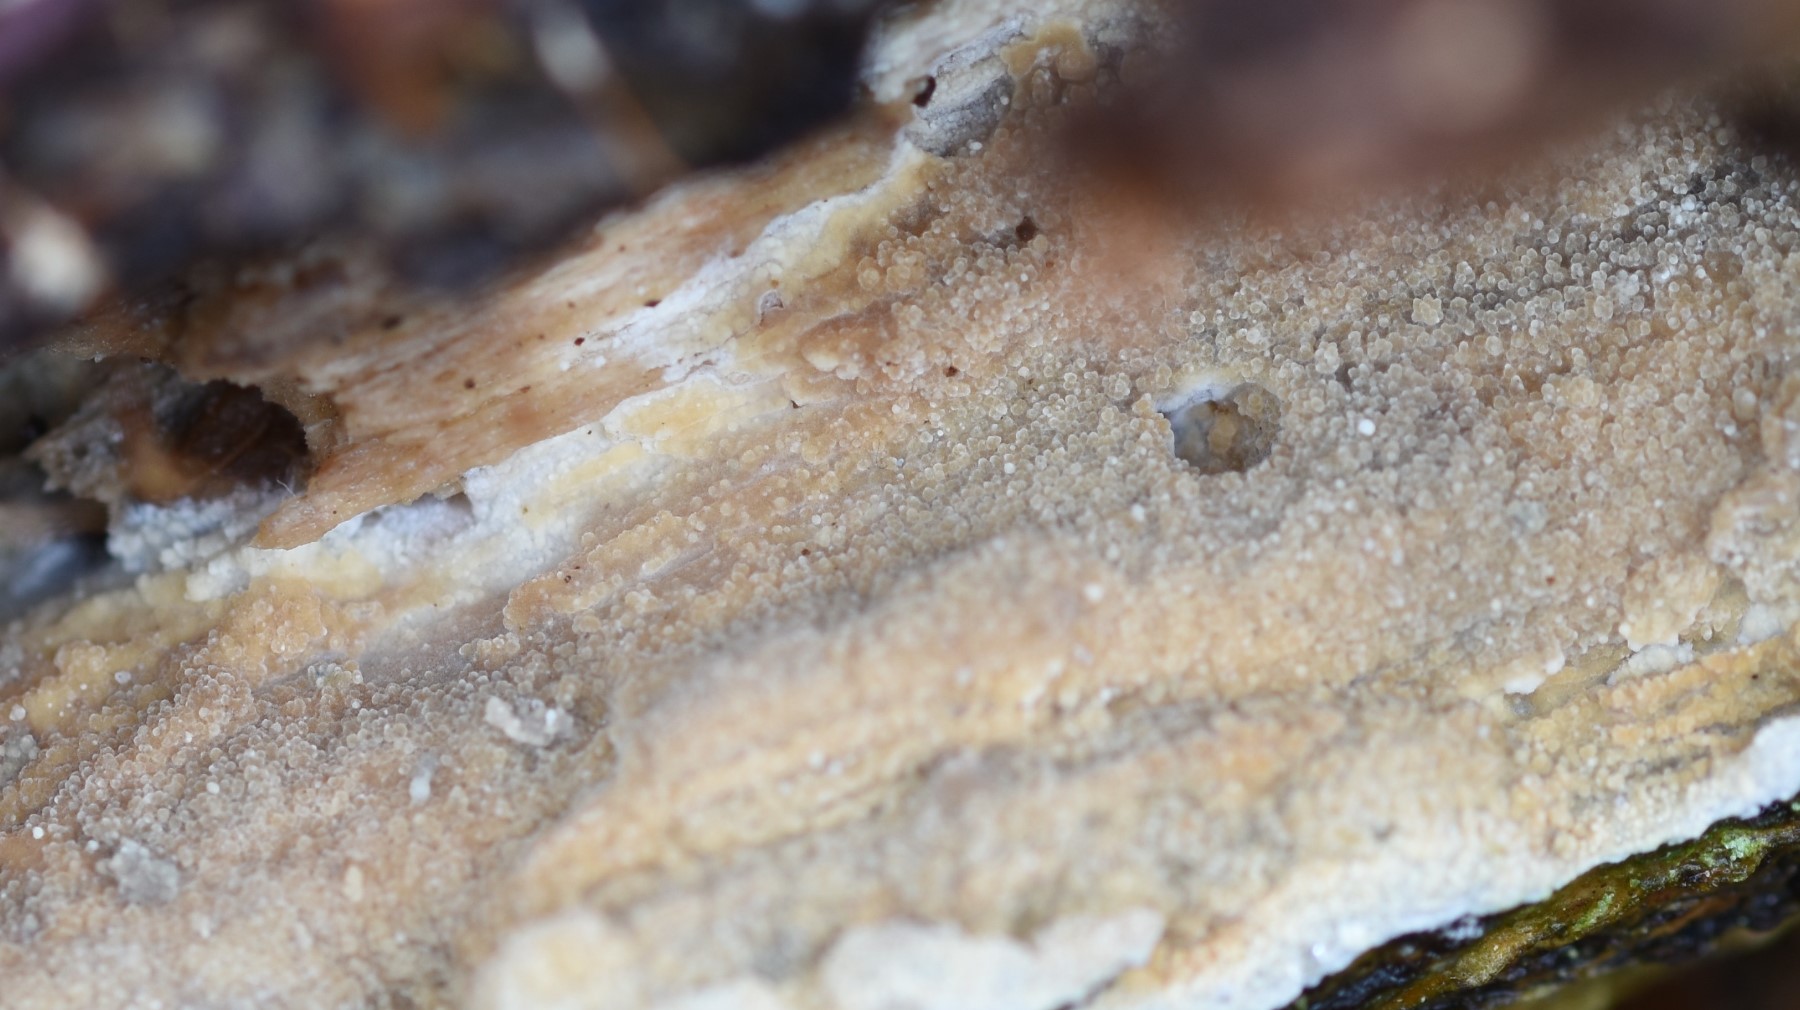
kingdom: Fungi
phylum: Basidiomycota
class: Agaricomycetes
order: Trechisporales
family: Hydnodontaceae
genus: Brevicellicium
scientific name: Brevicellicium olivascens
